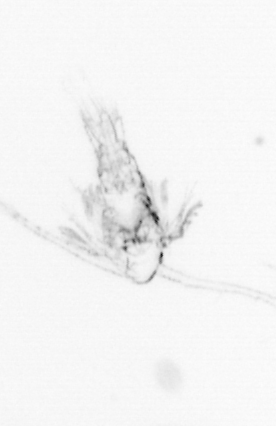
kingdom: Animalia
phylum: Arthropoda
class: Copepoda
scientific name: Copepoda
